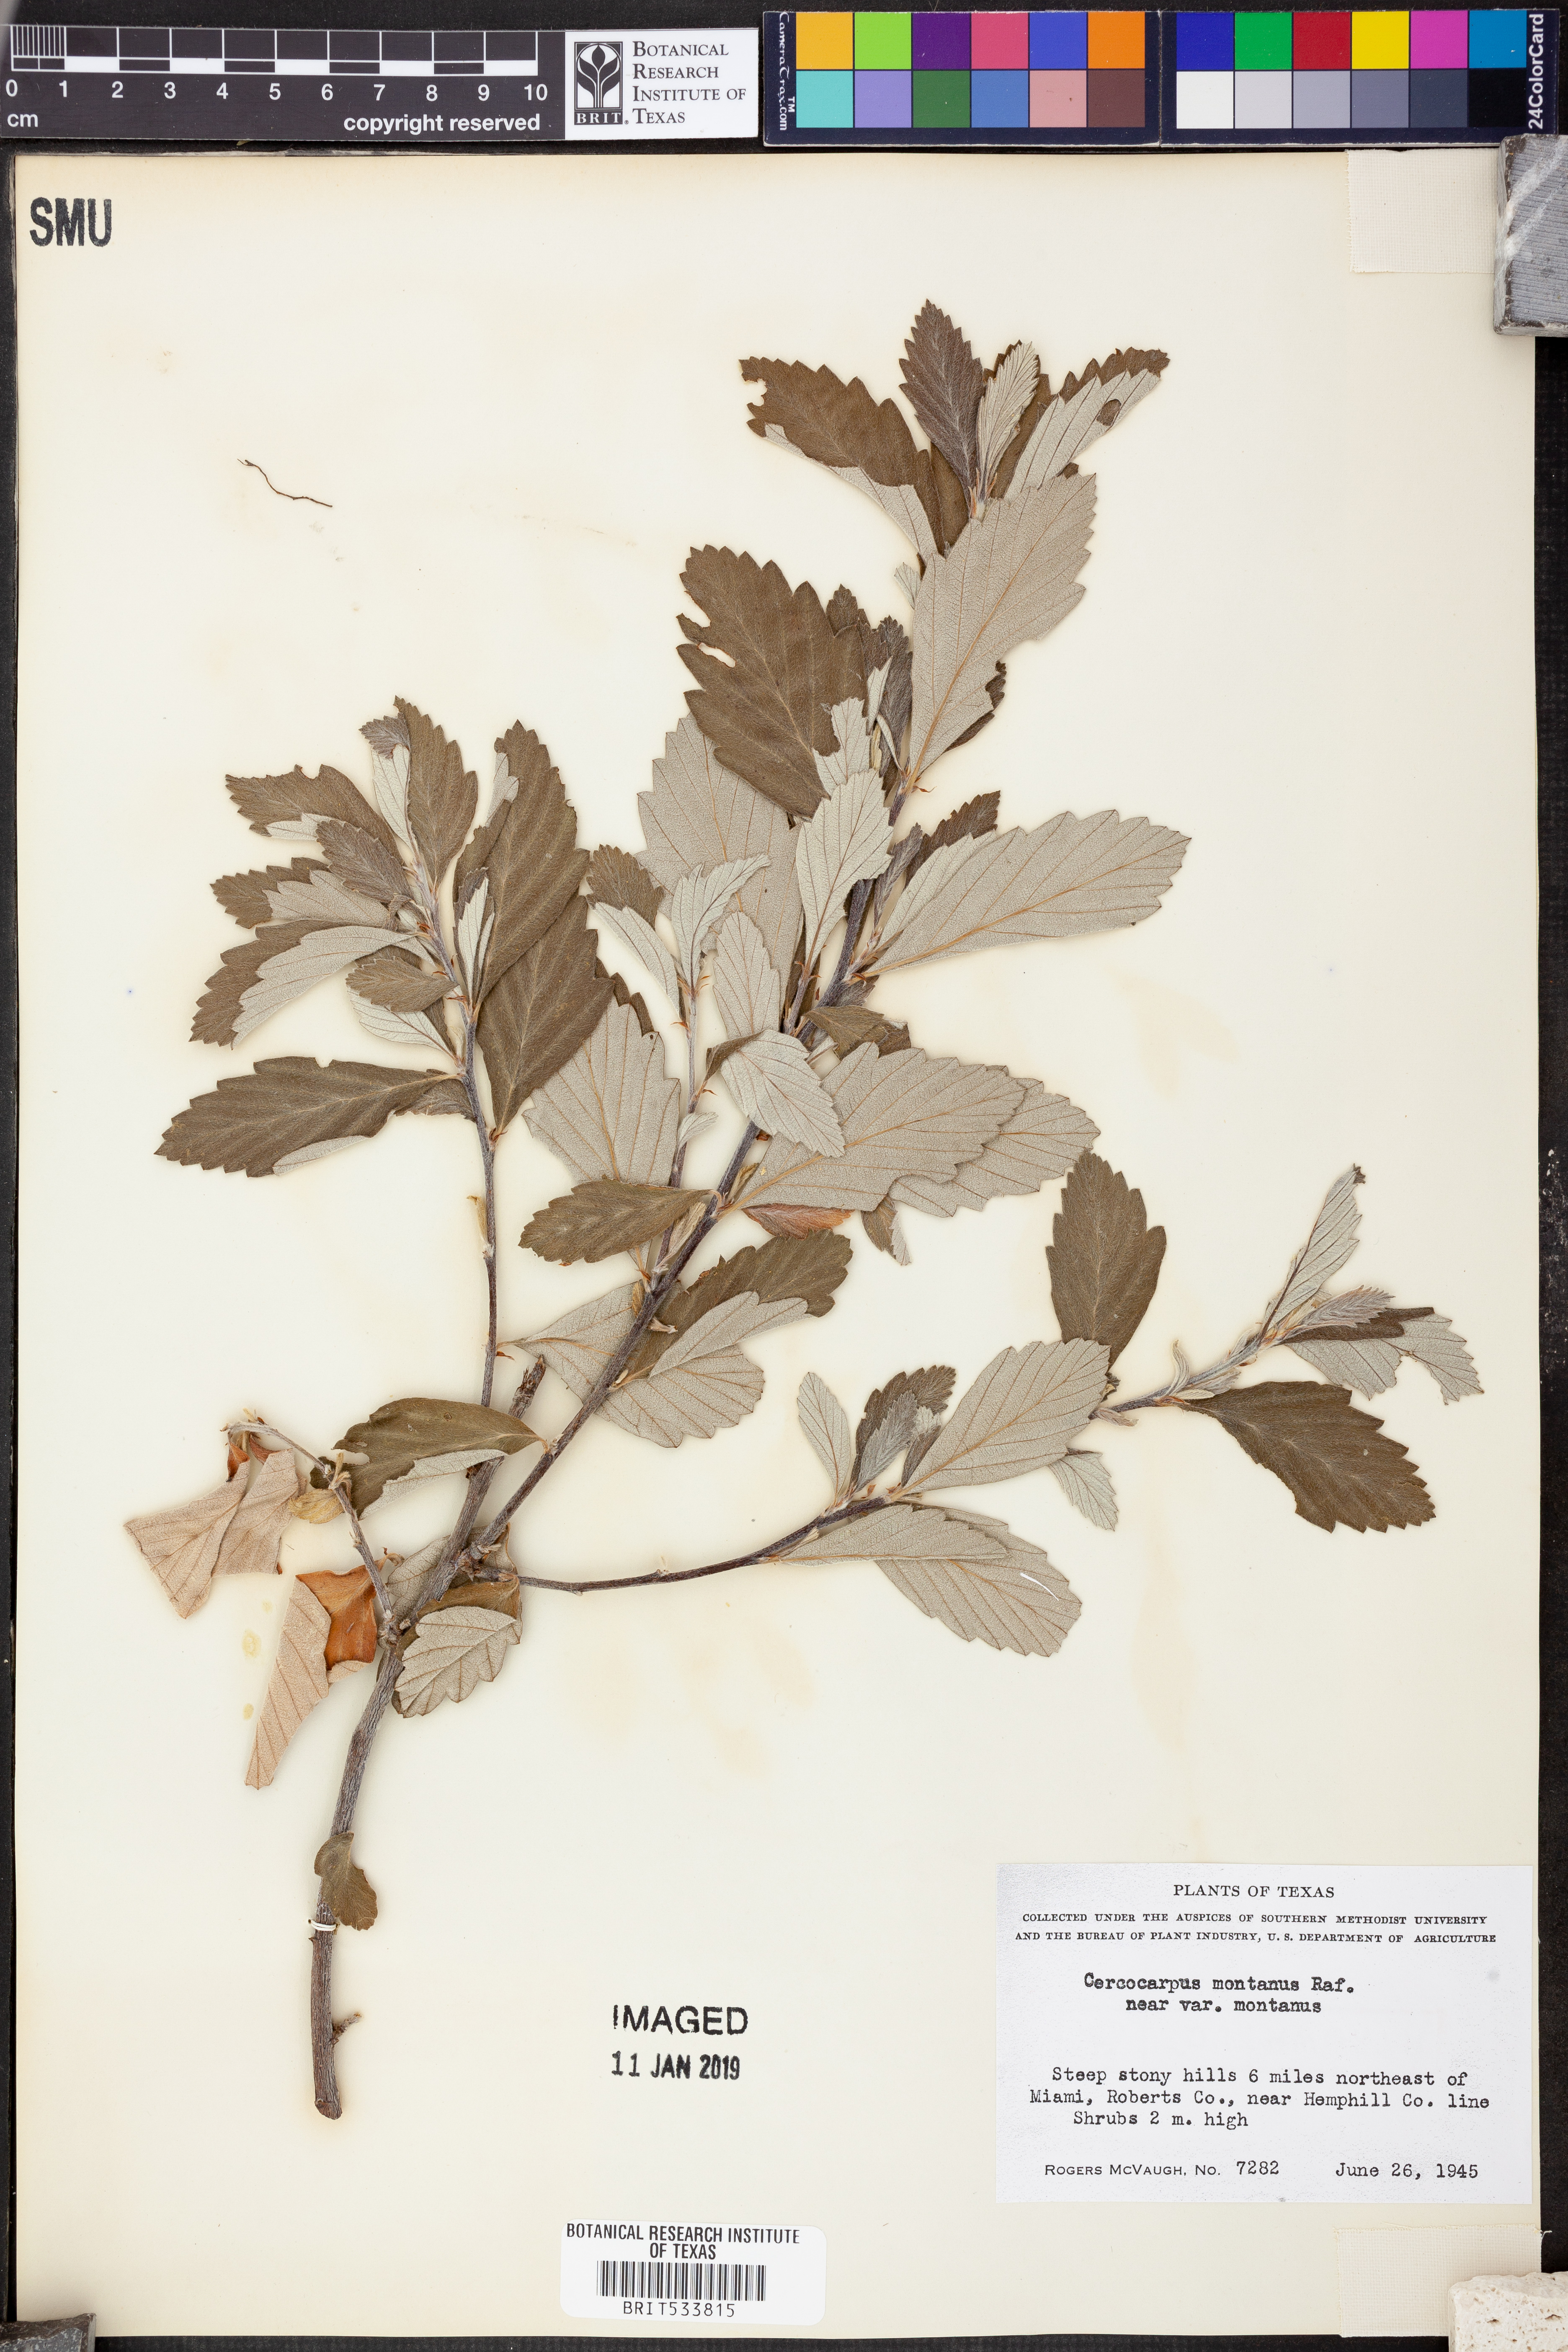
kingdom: Plantae
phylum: Tracheophyta
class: Magnoliopsida
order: Rosales
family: Rosaceae
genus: Cercocarpus
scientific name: Cercocarpus montanus
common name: Alder-leaf cercocarpus
